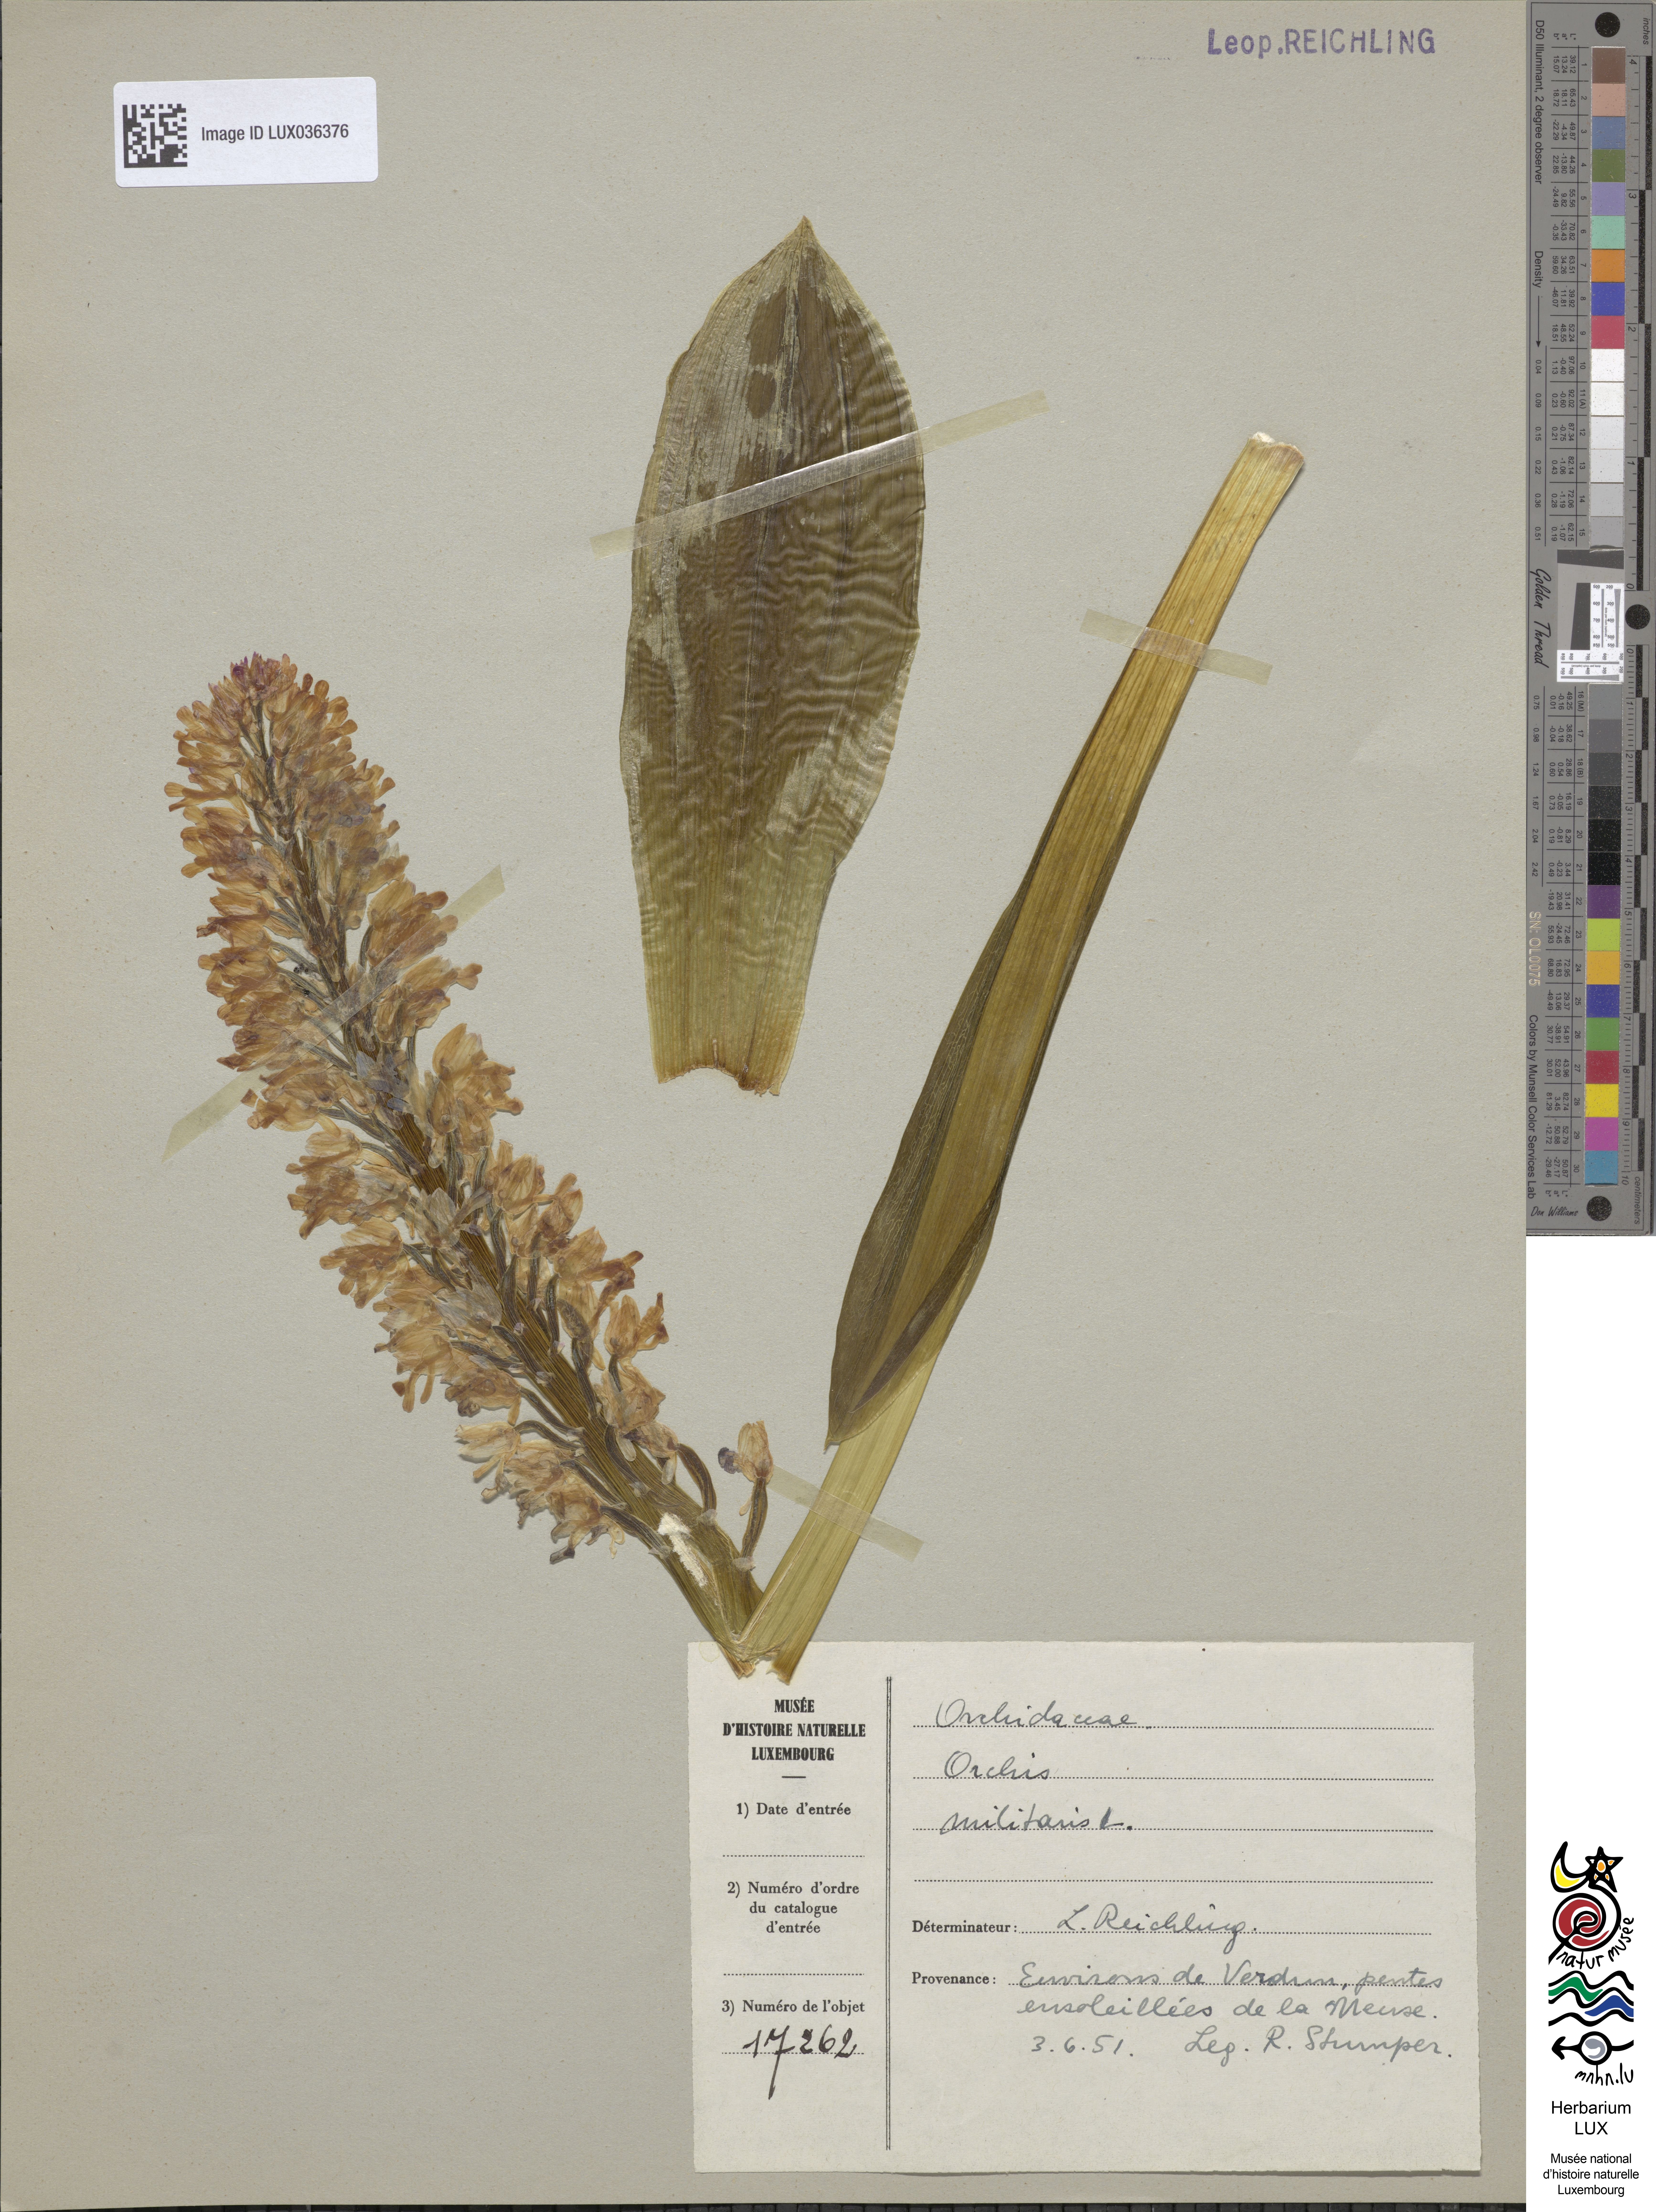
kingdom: Plantae
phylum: Tracheophyta
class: Liliopsida
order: Asparagales
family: Orchidaceae
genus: Orchis
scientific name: Orchis militaris
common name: Military orchid
